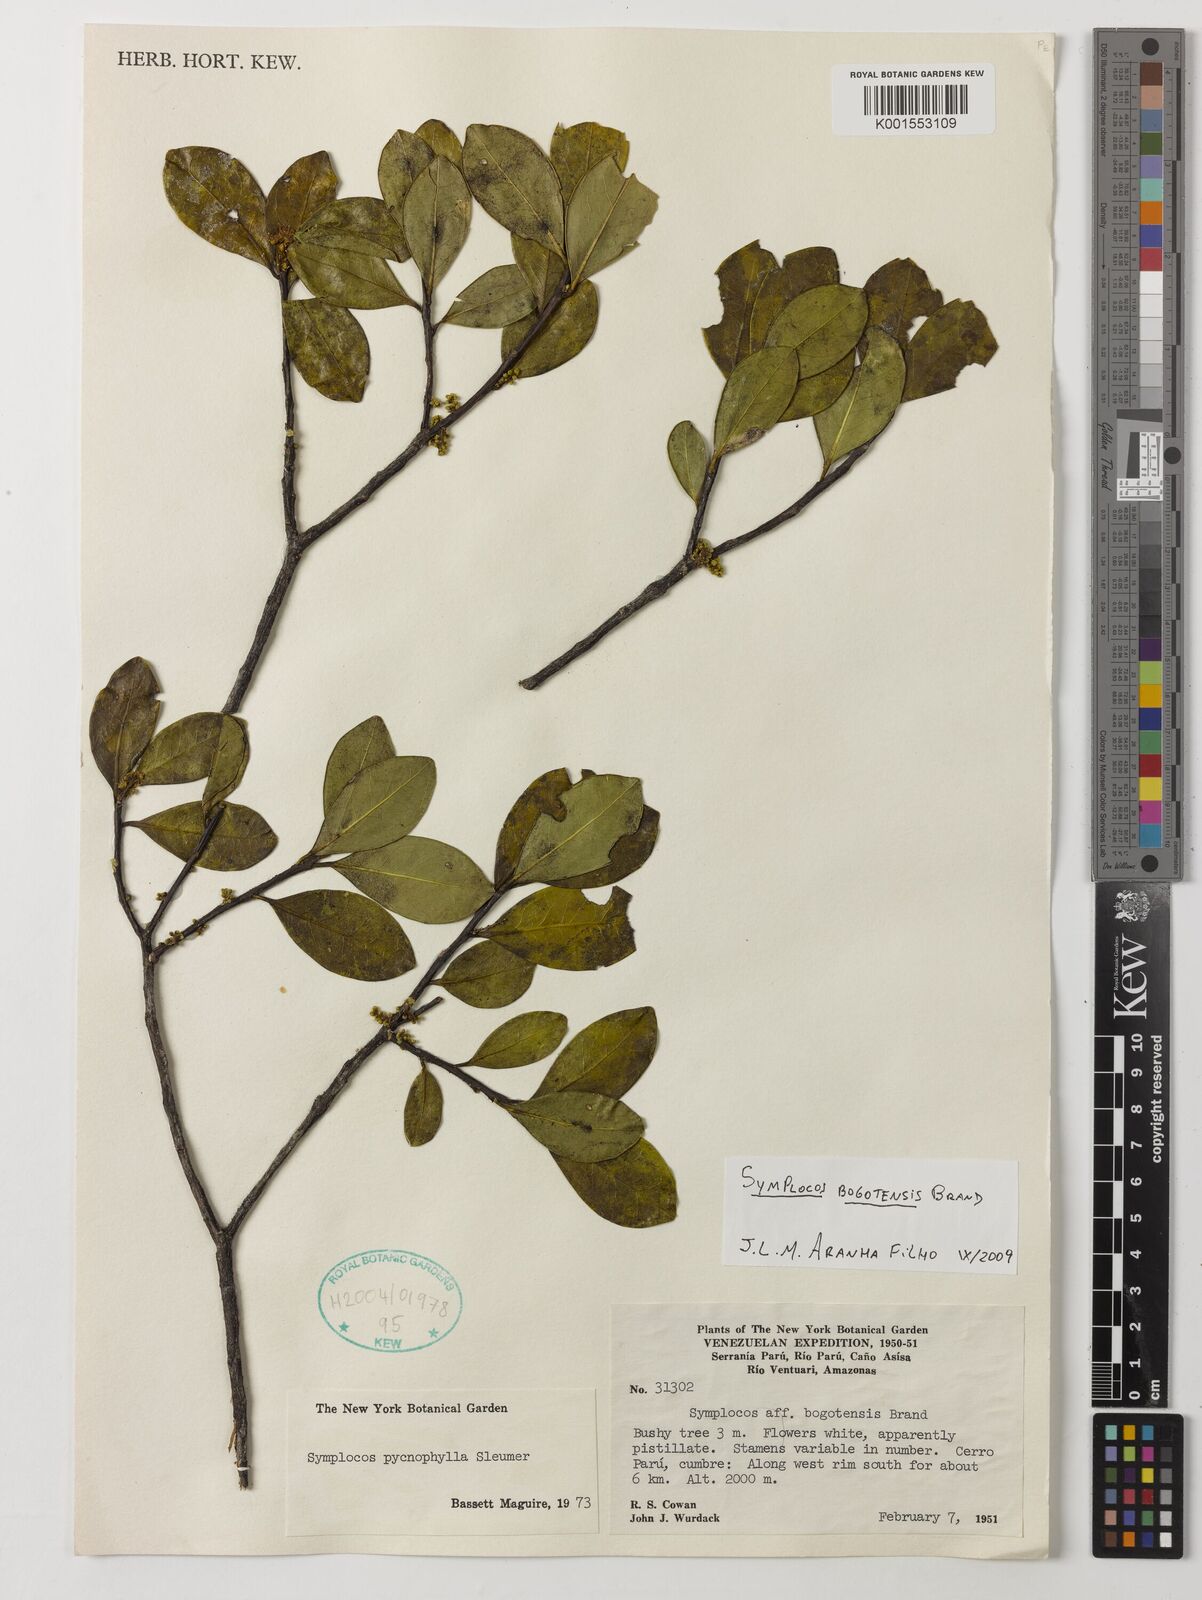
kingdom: Plantae
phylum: Tracheophyta
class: Magnoliopsida
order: Ericales
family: Symplocaceae
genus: Symplocos
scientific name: Symplocos bogotensis
